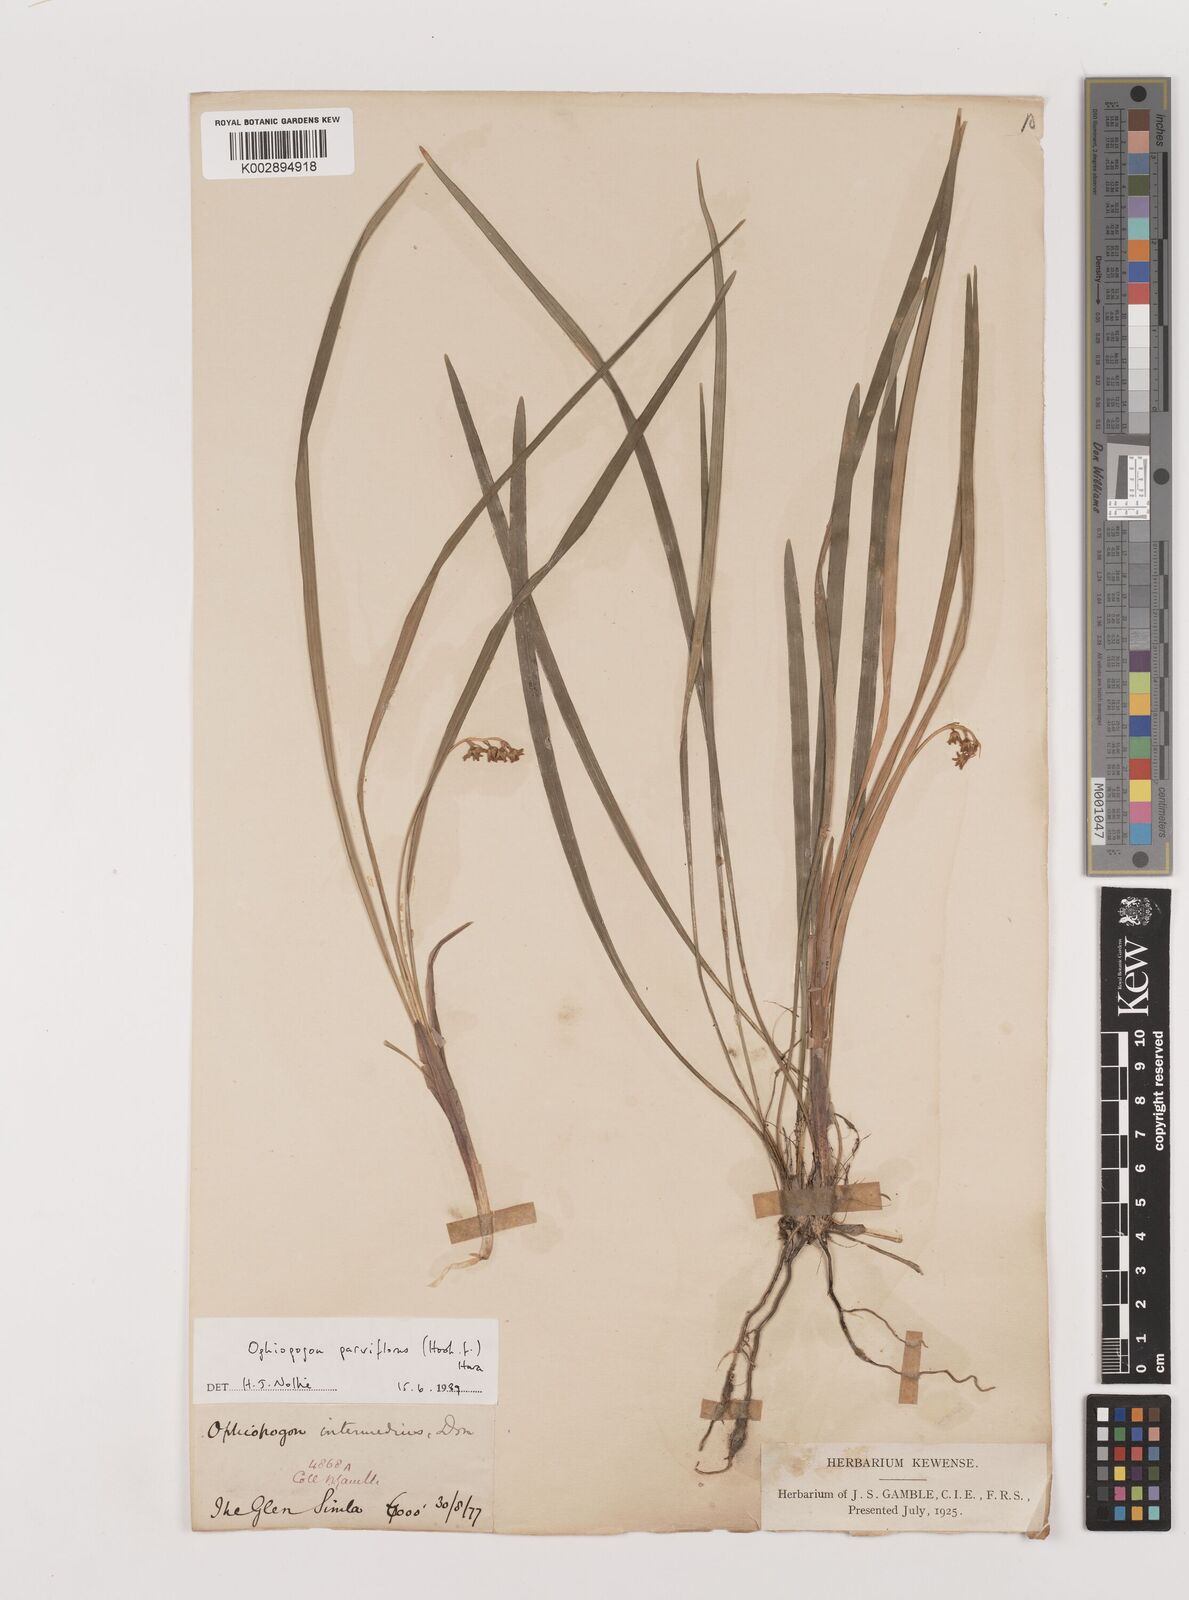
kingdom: Plantae
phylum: Tracheophyta
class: Liliopsida
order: Asparagales
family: Asparagaceae
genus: Ophiopogon
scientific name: Ophiopogon intermedius
